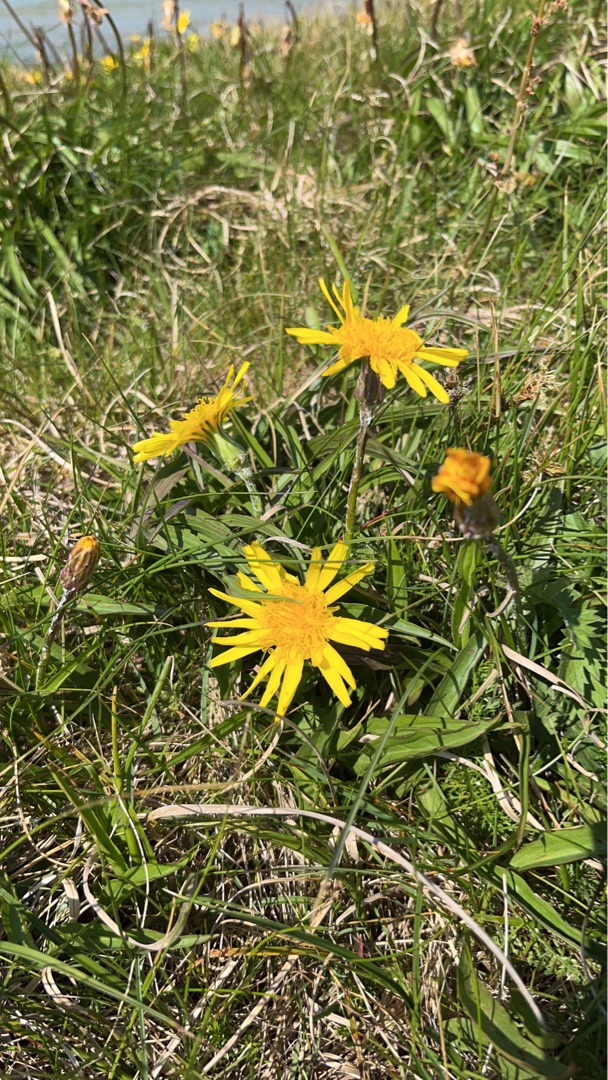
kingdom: Plantae
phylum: Tracheophyta
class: Magnoliopsida
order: Asterales
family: Asteraceae
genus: Scorzonera
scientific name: Scorzonera humilis
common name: Lav skorsoner
